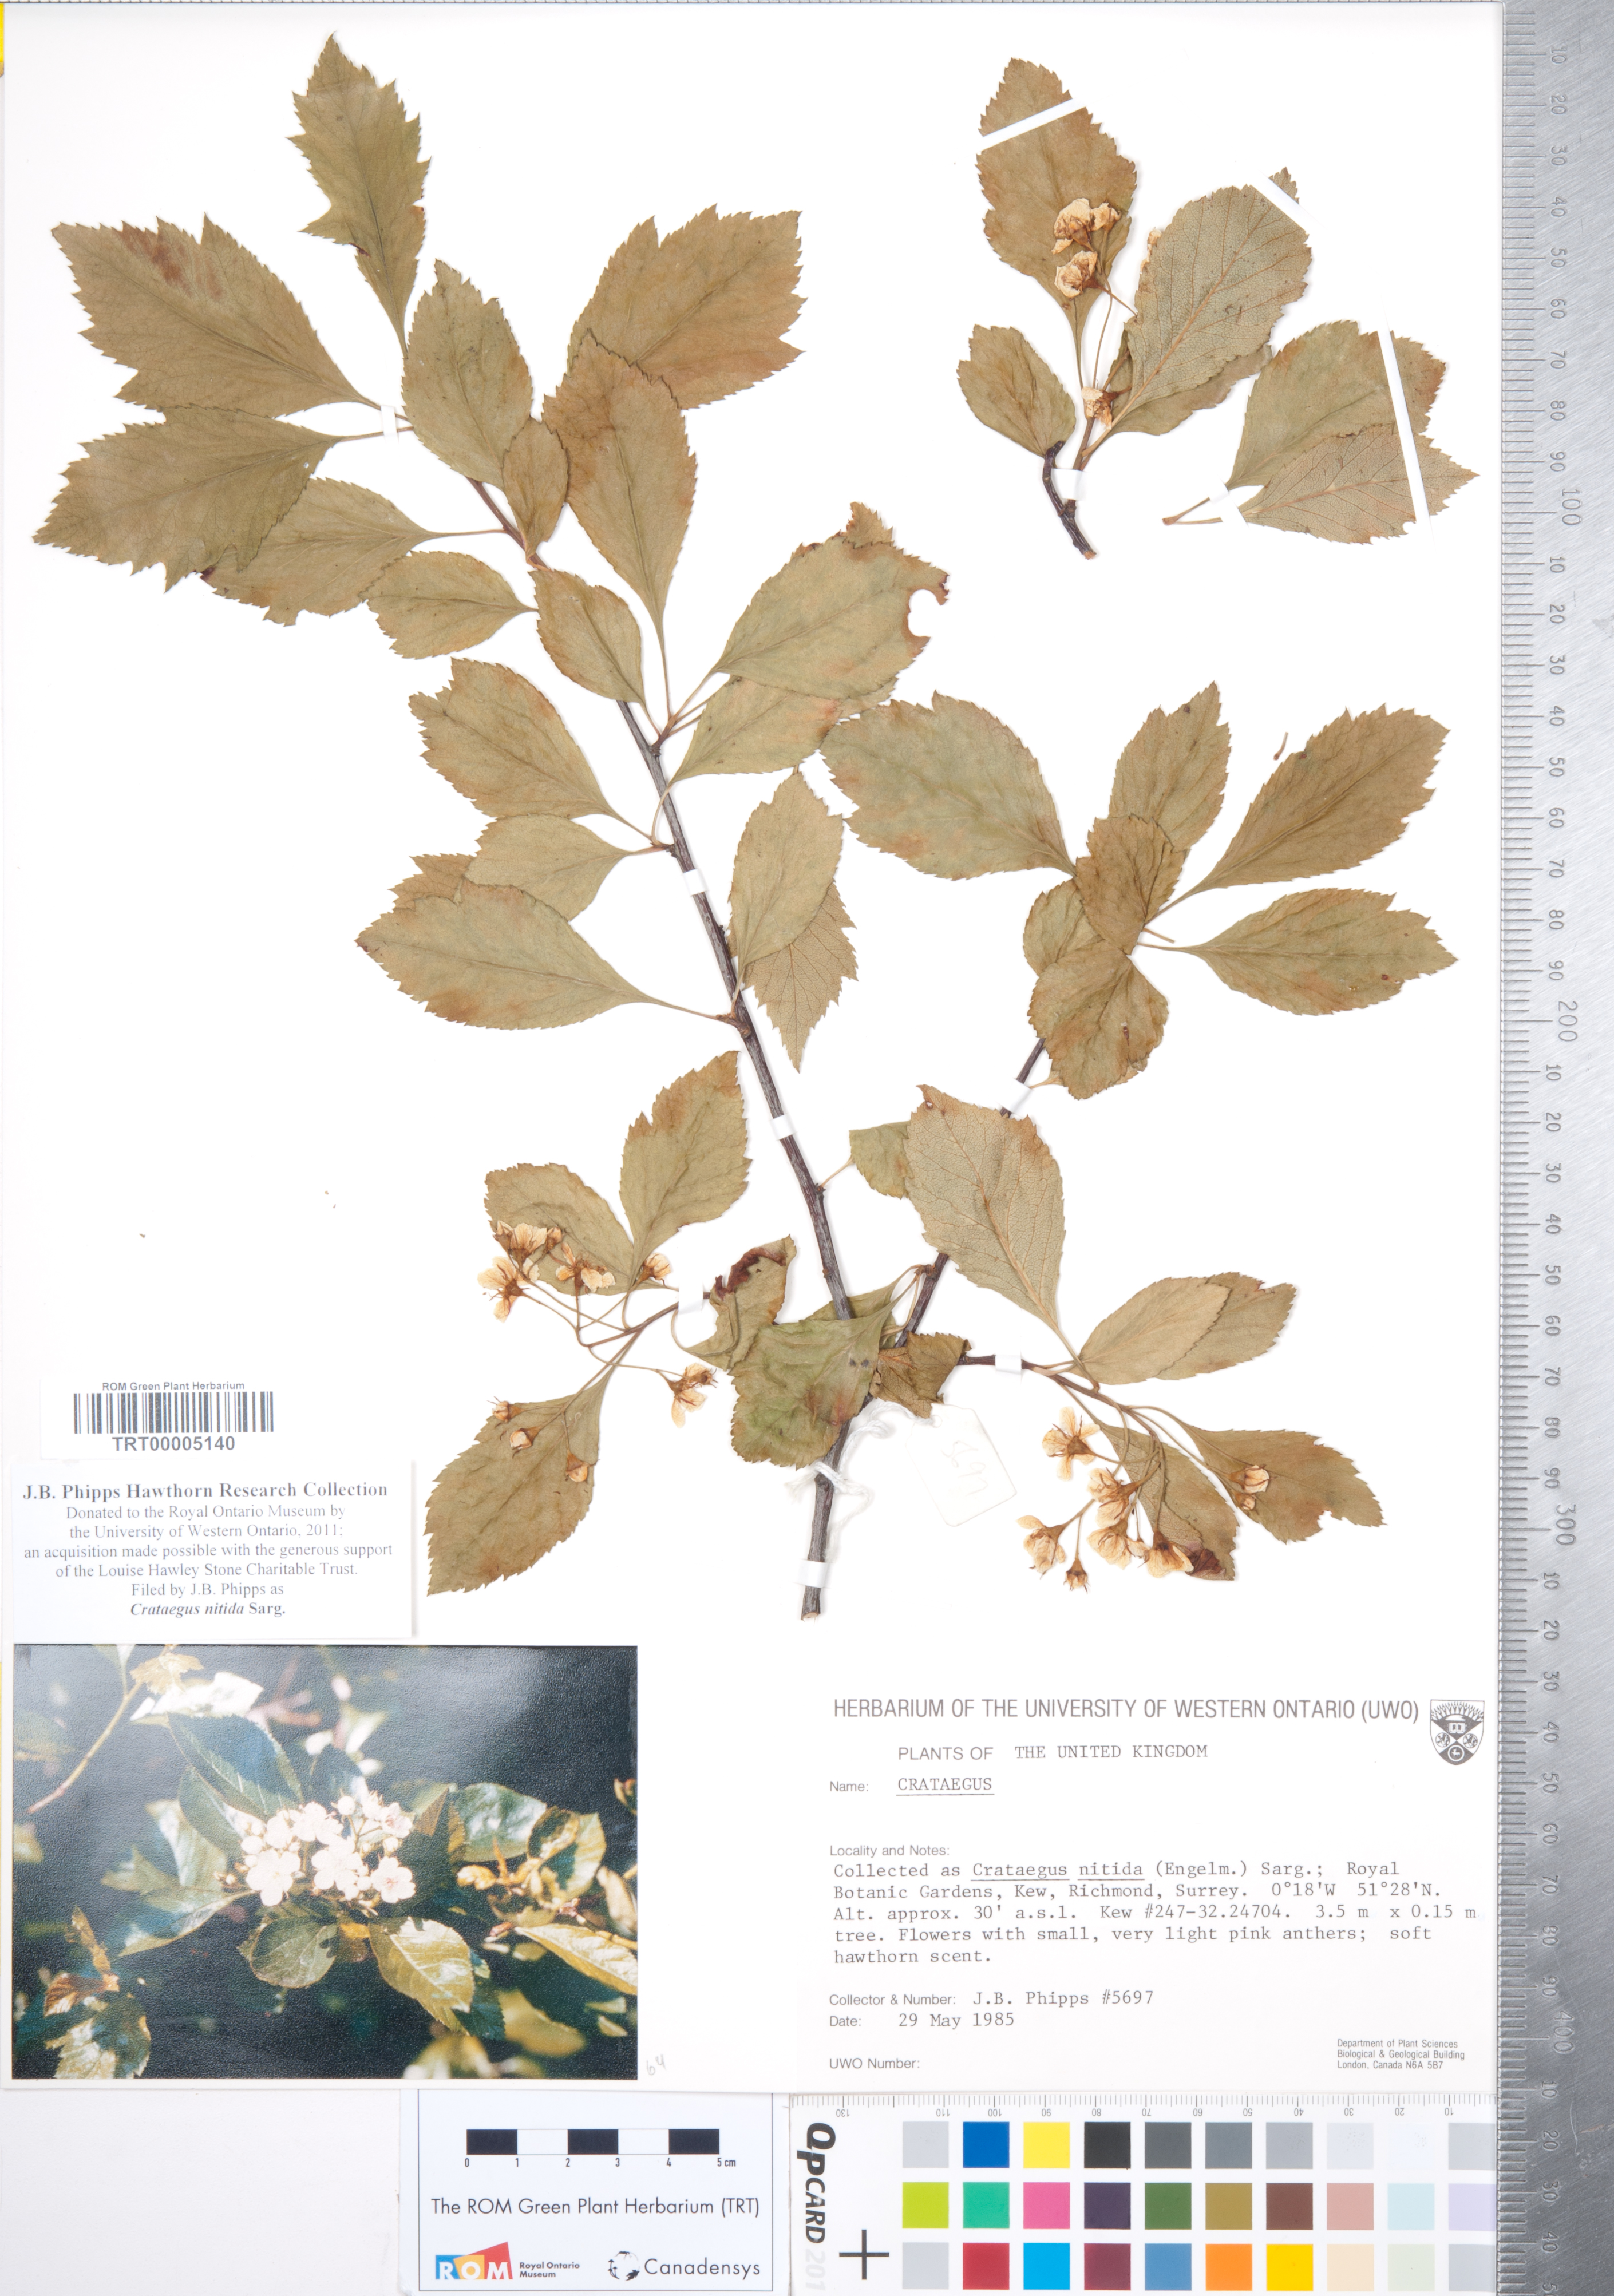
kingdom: Plantae
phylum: Tracheophyta
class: Magnoliopsida
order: Rosales
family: Rosaceae
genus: Crataegus
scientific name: Crataegus nitida
